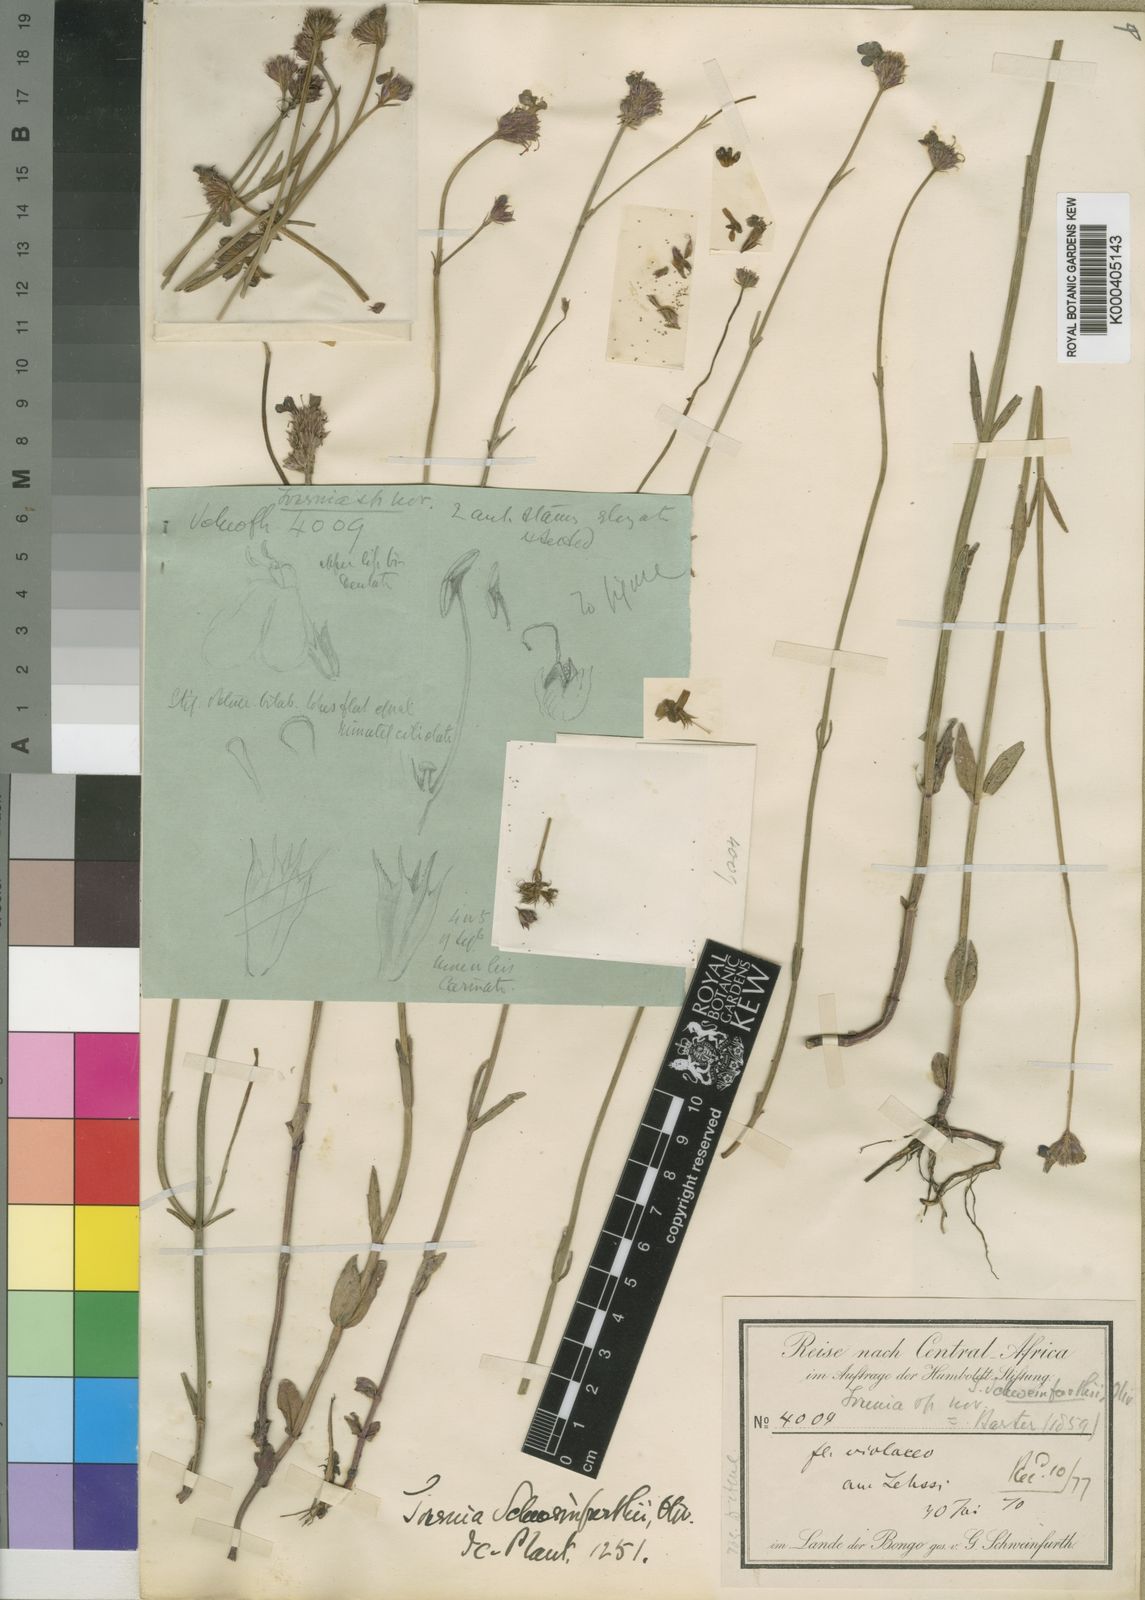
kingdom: Plantae
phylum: Tracheophyta
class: Magnoliopsida
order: Lamiales
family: Linderniaceae
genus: Crepidorhopalon
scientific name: Crepidorhopalon schweinfurthii
